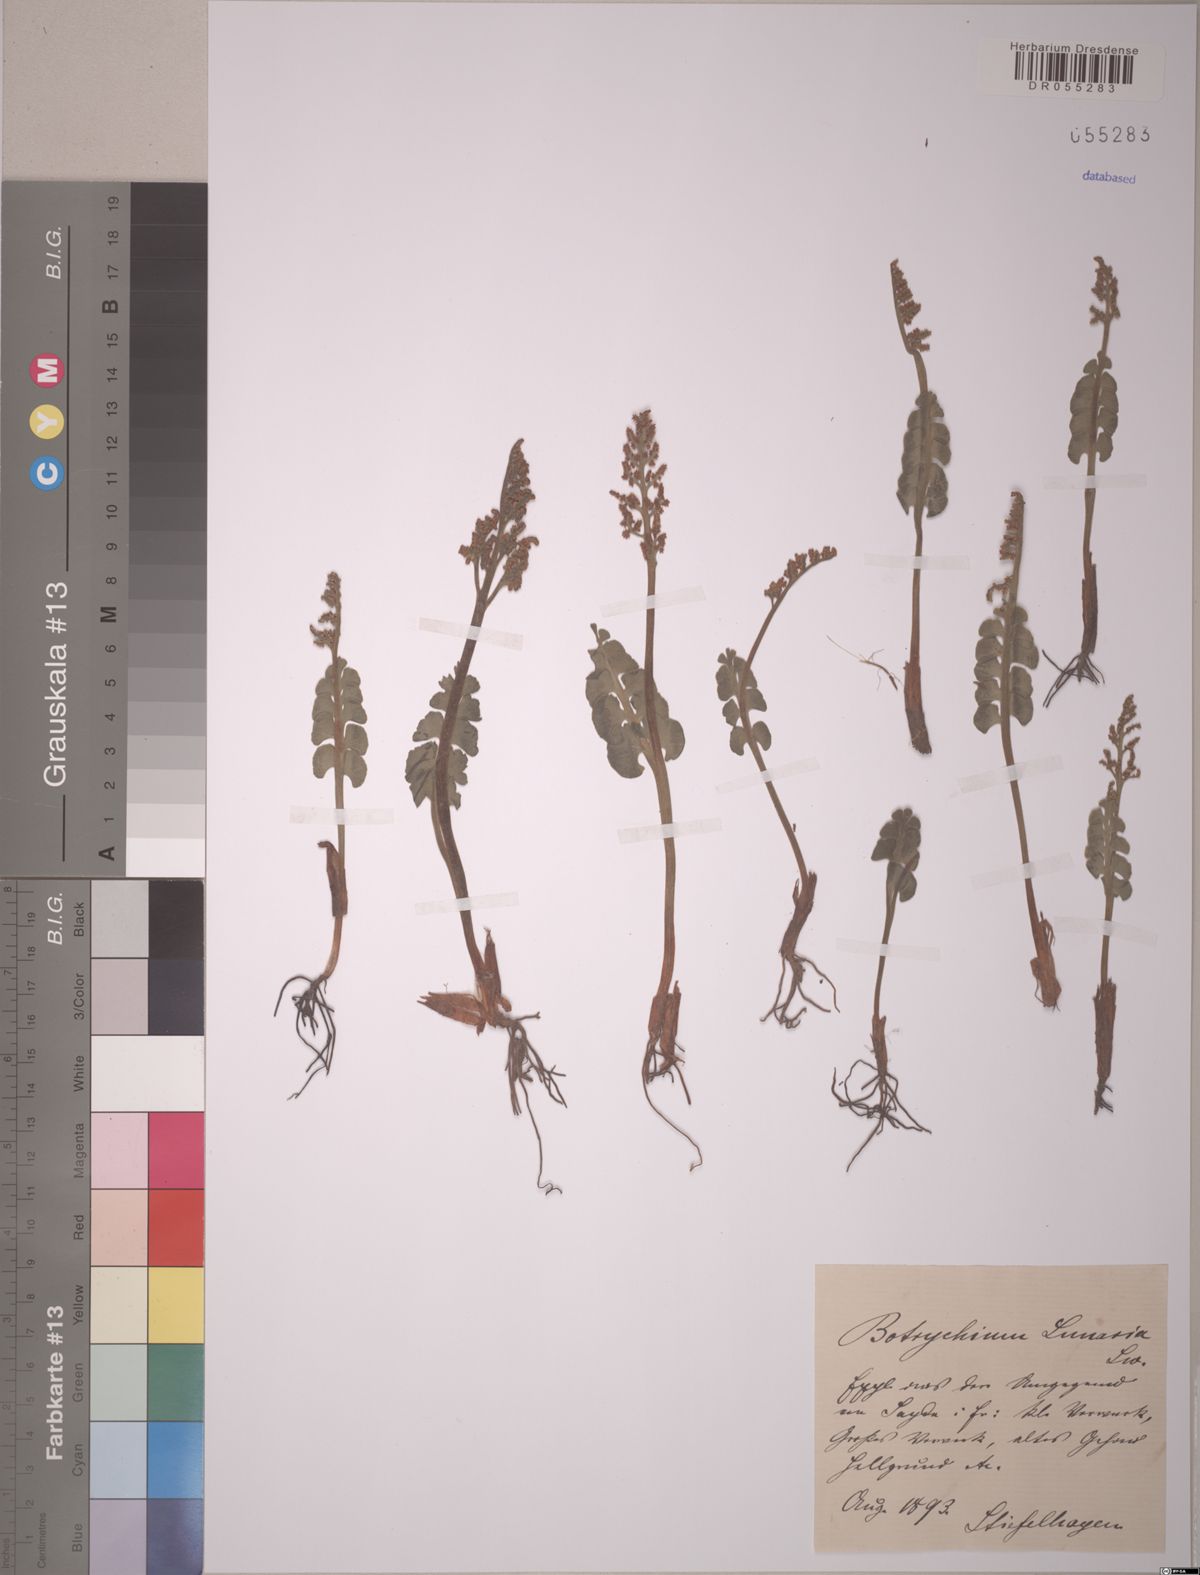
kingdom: Plantae
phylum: Tracheophyta
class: Polypodiopsida
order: Ophioglossales
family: Ophioglossaceae
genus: Botrychium
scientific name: Botrychium lunaria
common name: Moonwort
